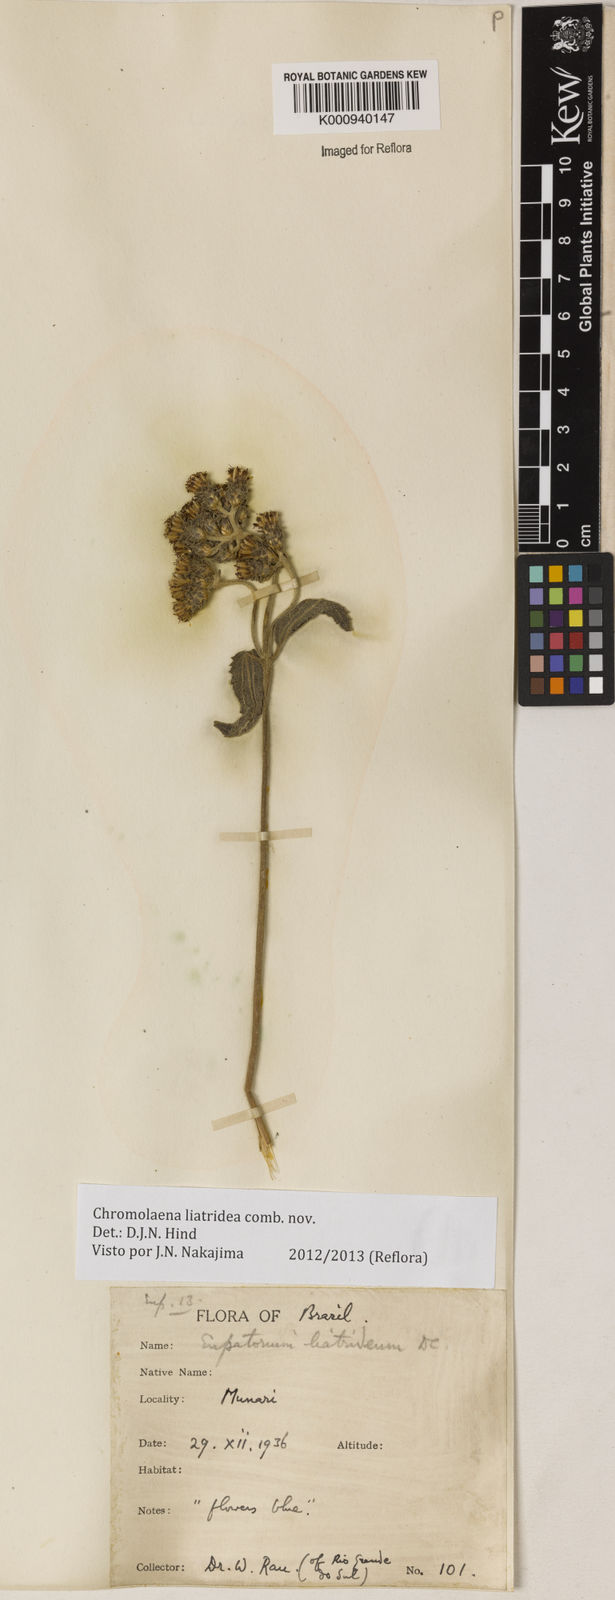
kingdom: Plantae
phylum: Tracheophyta
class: Magnoliopsida
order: Asterales
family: Asteraceae
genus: Chromolaena
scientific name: Chromolaena
